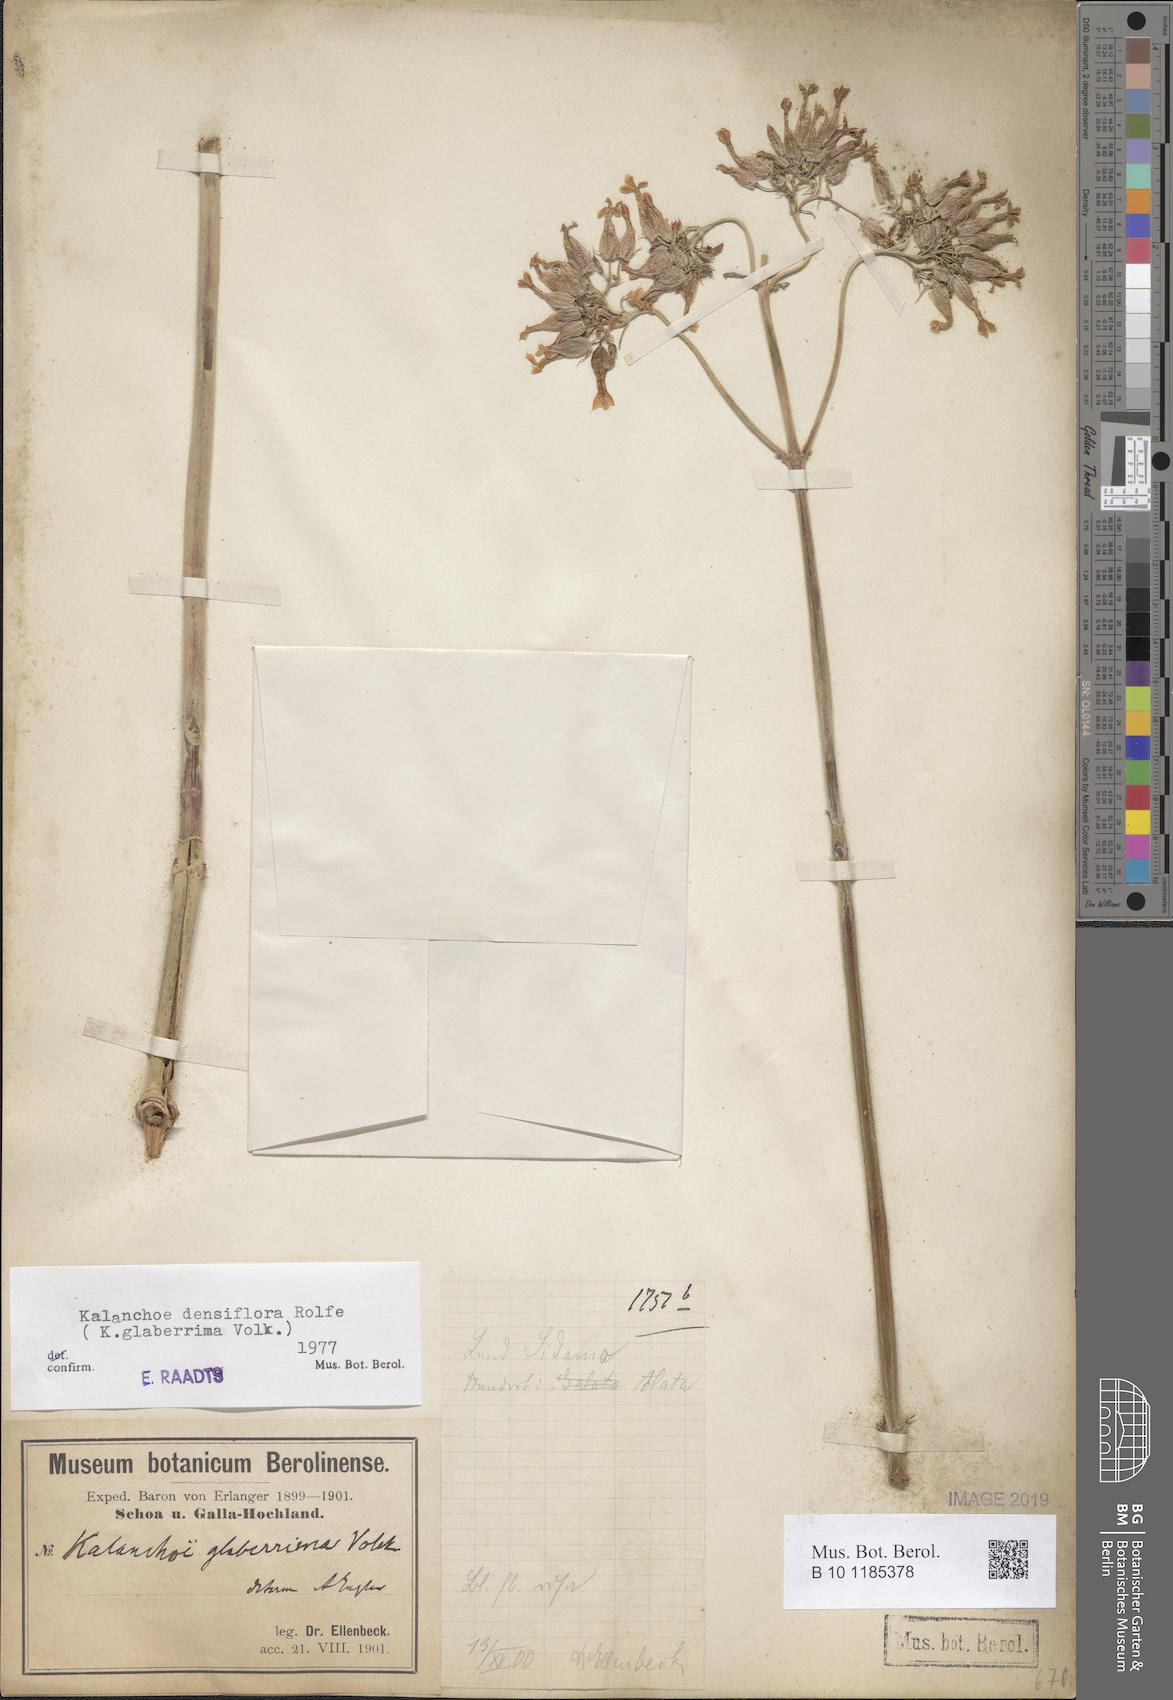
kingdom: Plantae
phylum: Tracheophyta
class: Magnoliopsida
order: Saxifragales
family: Crassulaceae
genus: Kalanchoe
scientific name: Kalanchoe densiflora
